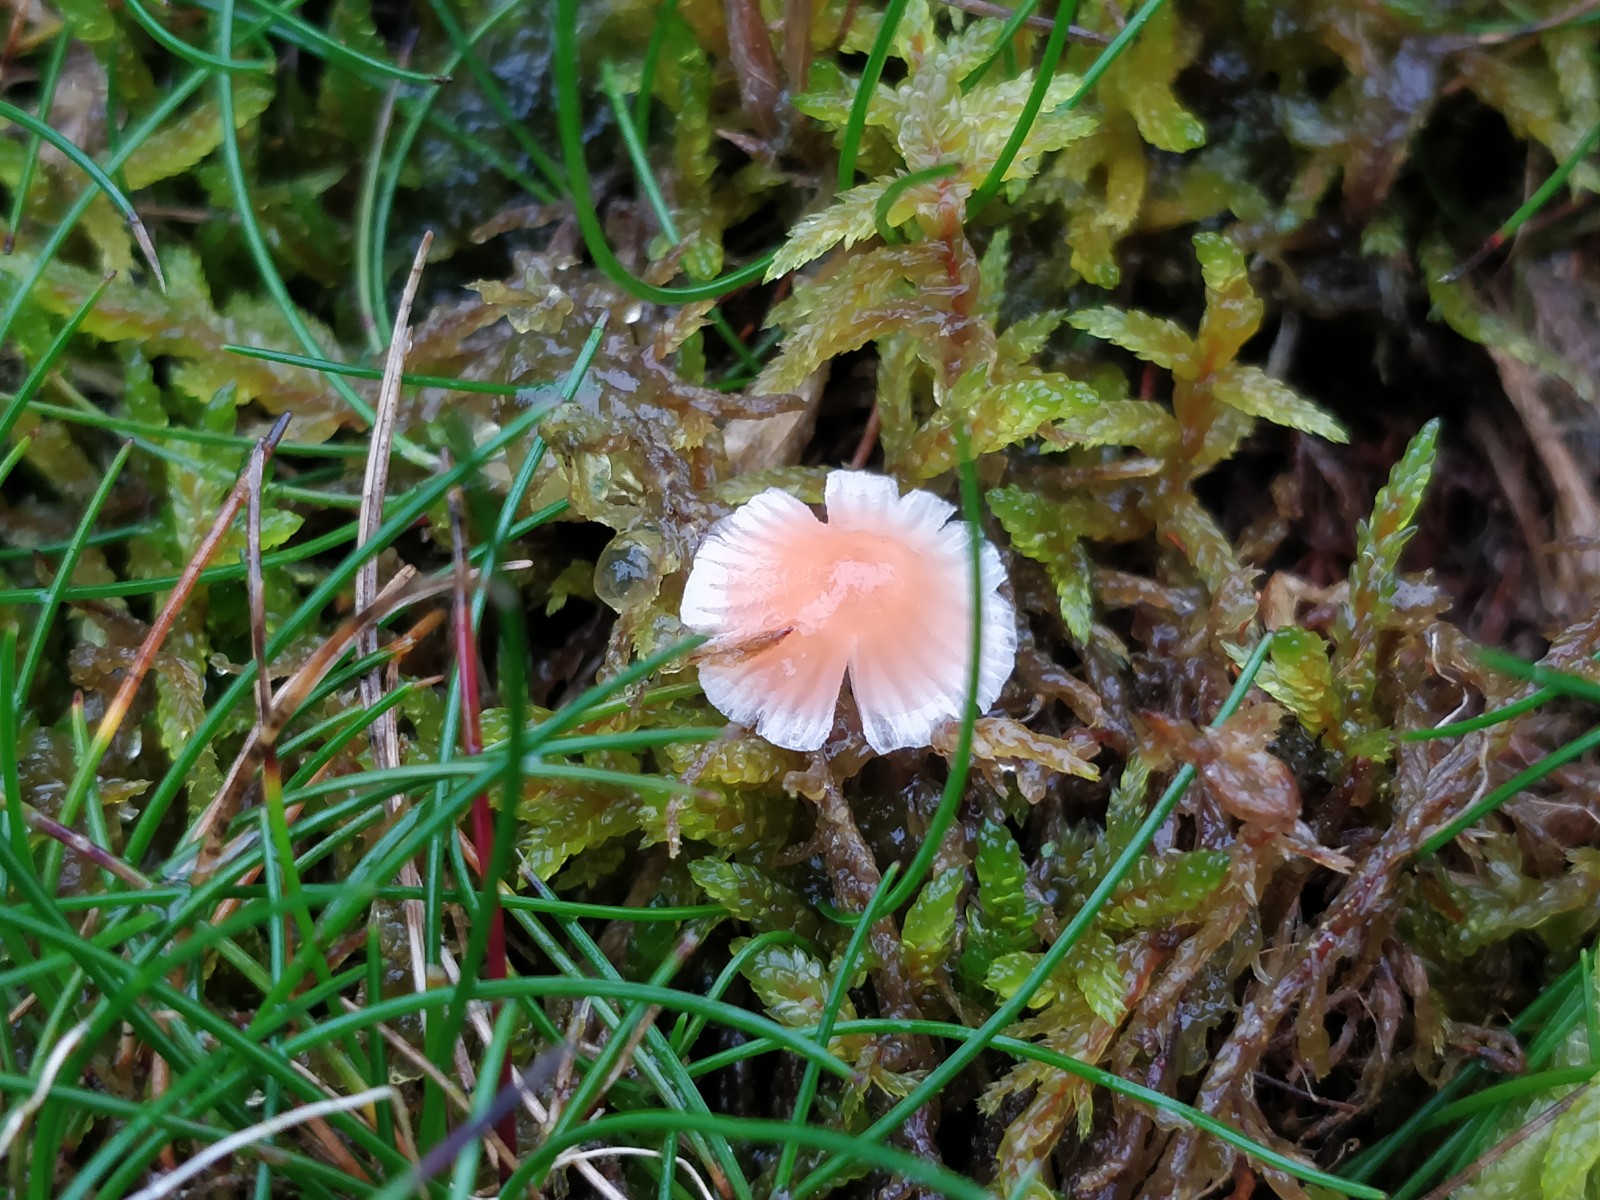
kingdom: Fungi
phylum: Basidiomycota
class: Agaricomycetes
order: Agaricales
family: Mycenaceae
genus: Atheniella
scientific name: Atheniella adonis
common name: rønnerød huesvamp
